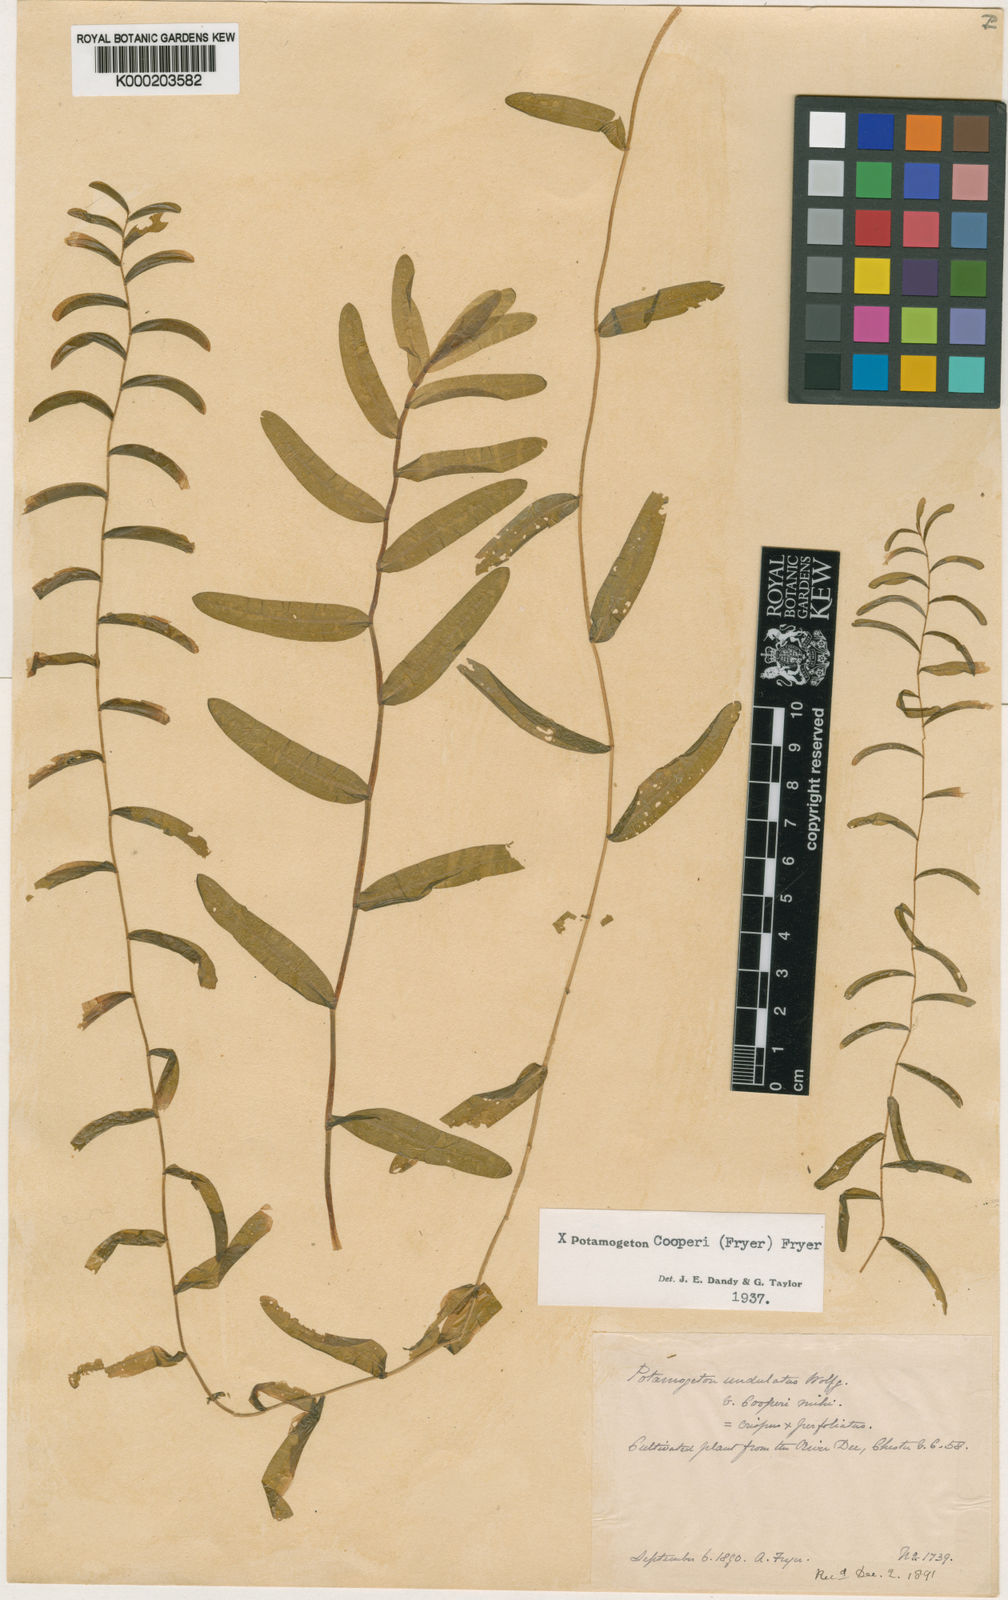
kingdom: Plantae
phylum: Tracheophyta
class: Liliopsida
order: Alismatales
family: Potamogetonaceae
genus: Potamogeton
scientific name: Potamogeton crispus
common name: Curled pondweed
